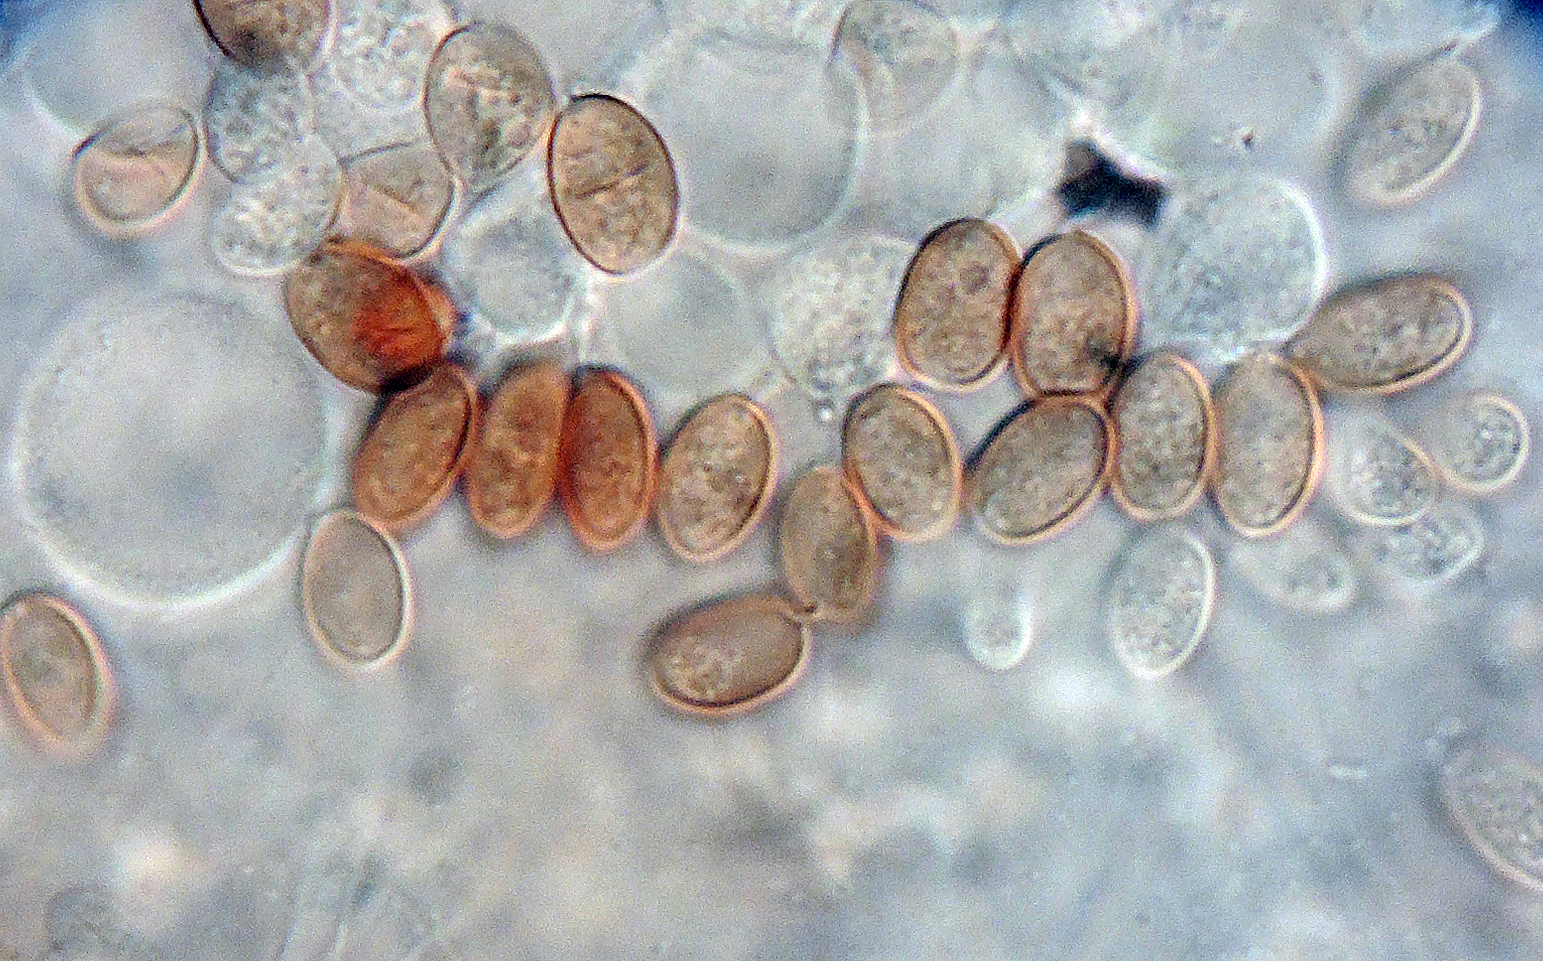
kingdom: Fungi
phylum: Basidiomycota
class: Agaricomycetes
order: Agaricales
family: Psathyrellaceae
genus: Tulosesus
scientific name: Tulosesus heterosetulosus
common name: forskellighåret blækhat
